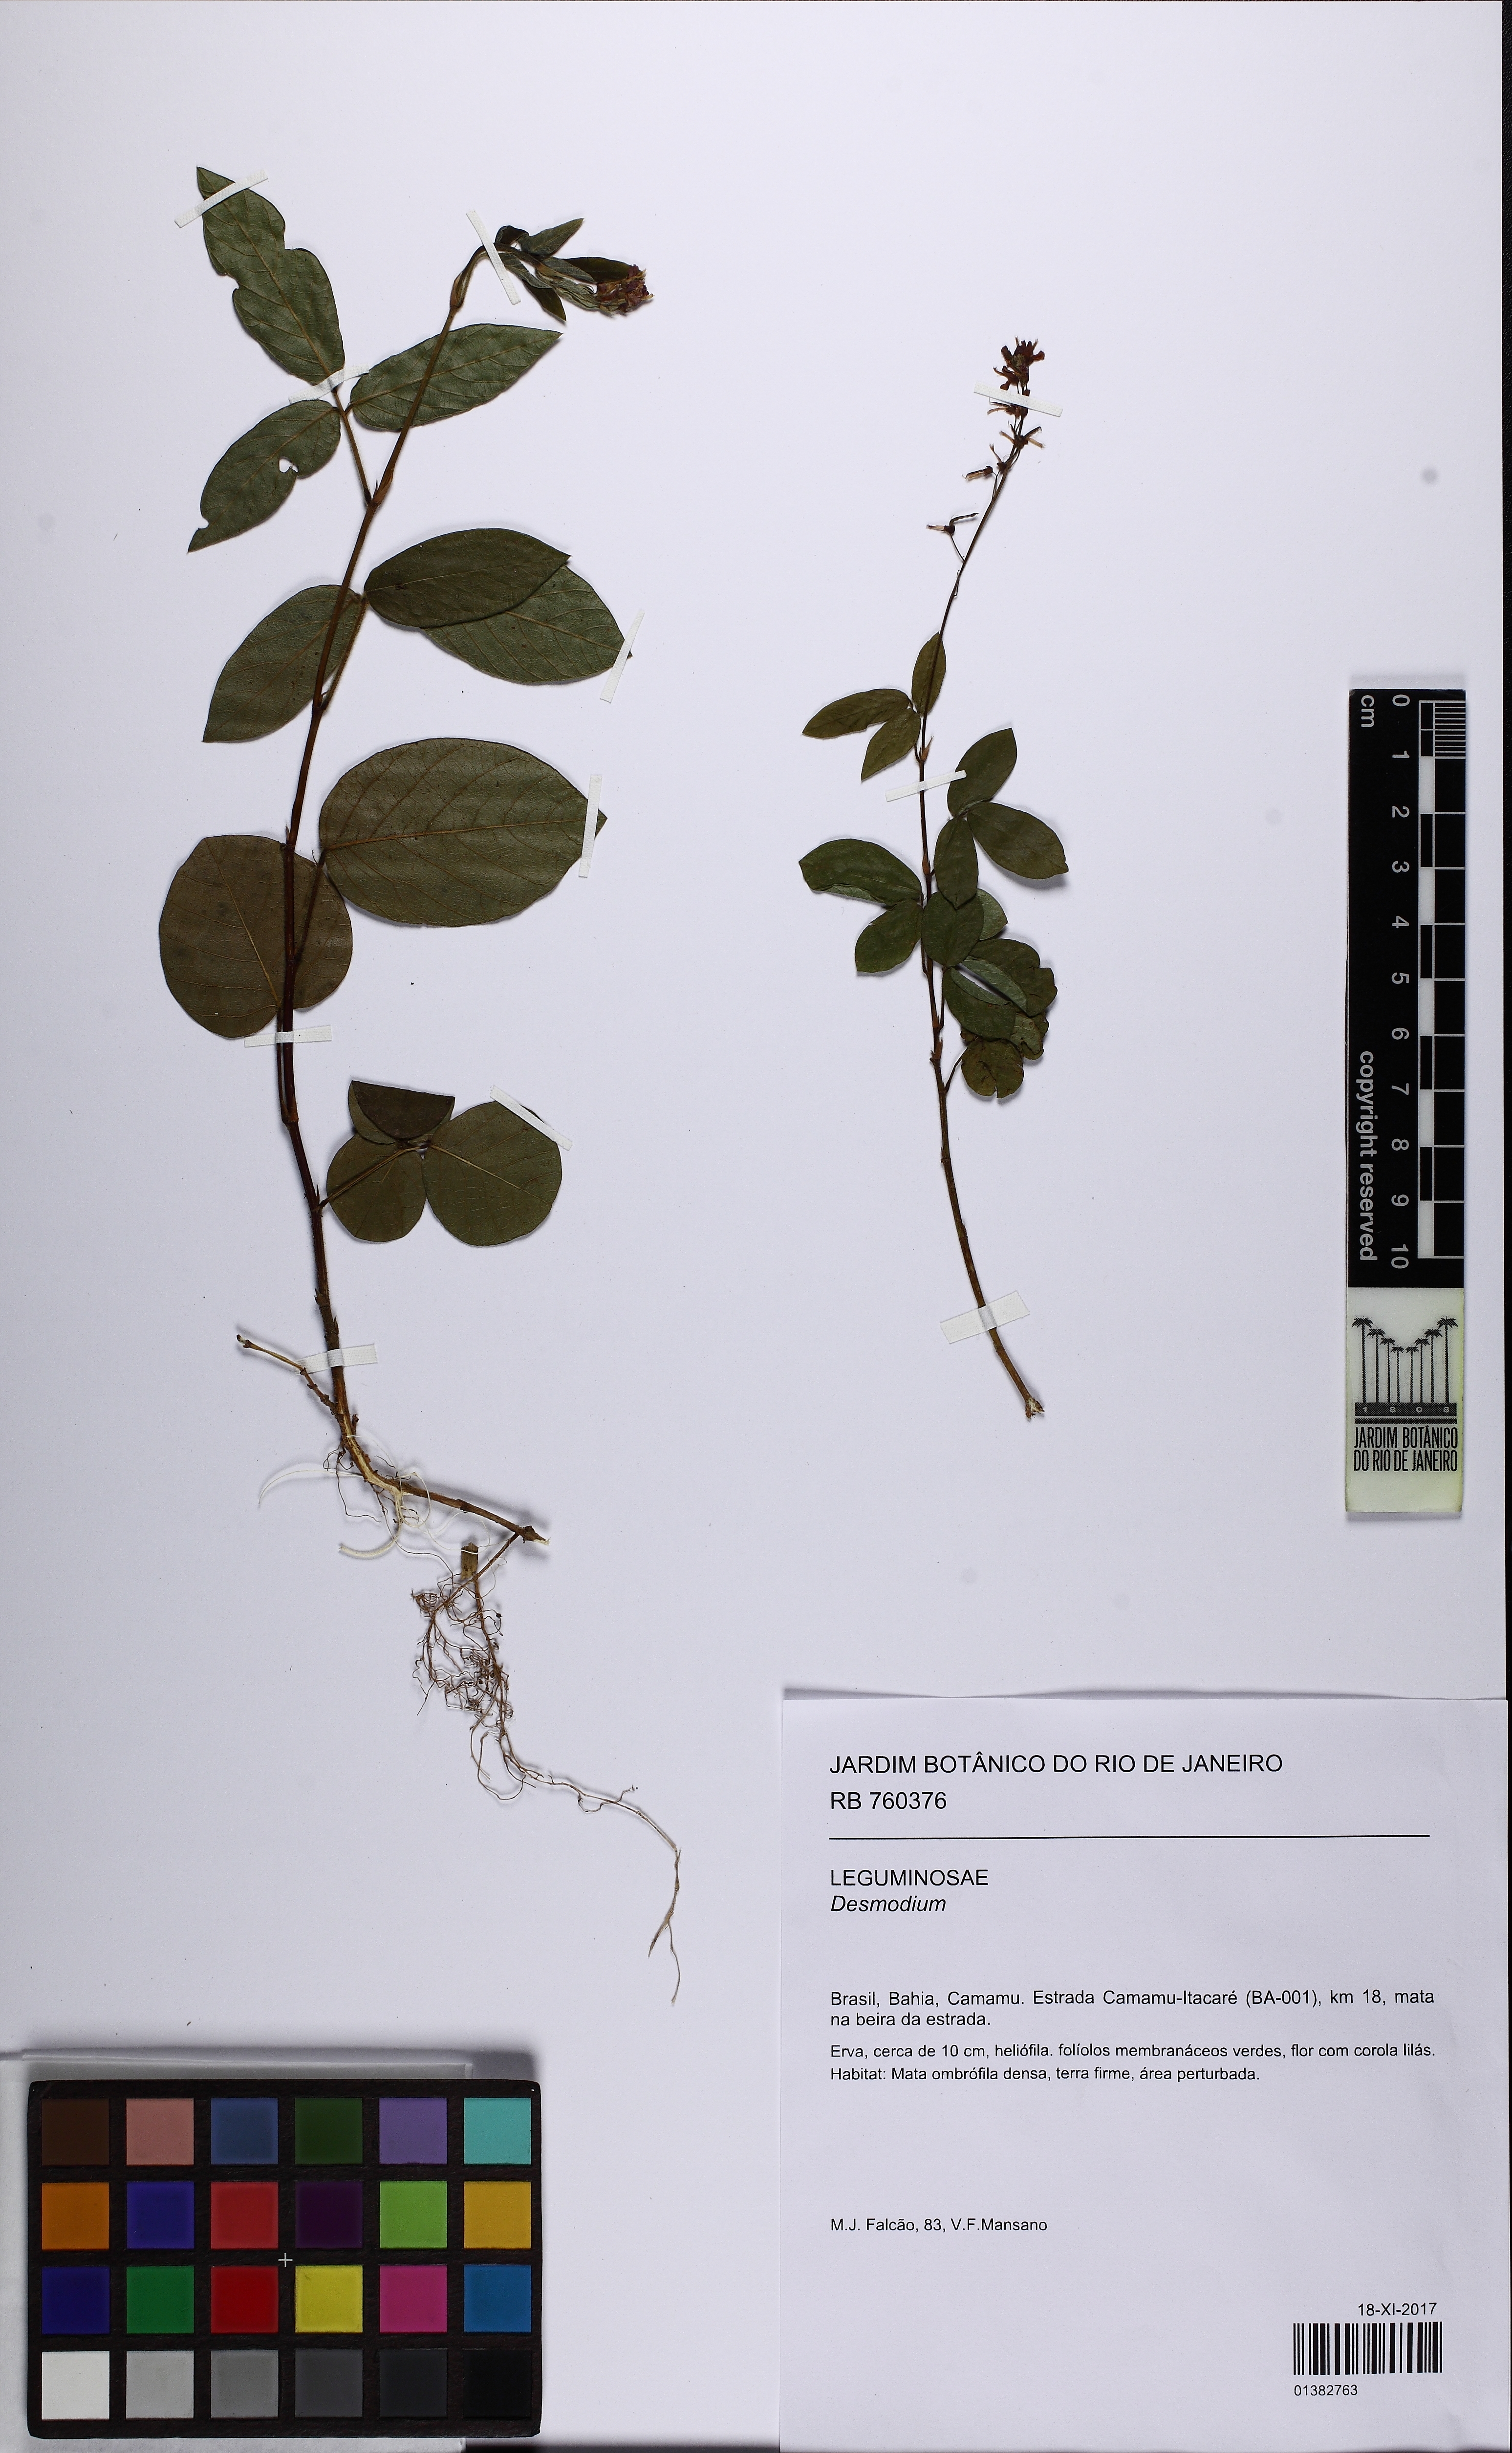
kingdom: Plantae
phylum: Tracheophyta
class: Magnoliopsida
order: Fabales
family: Fabaceae
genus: Desmodium
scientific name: Desmodium incanum
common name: Tickclover
